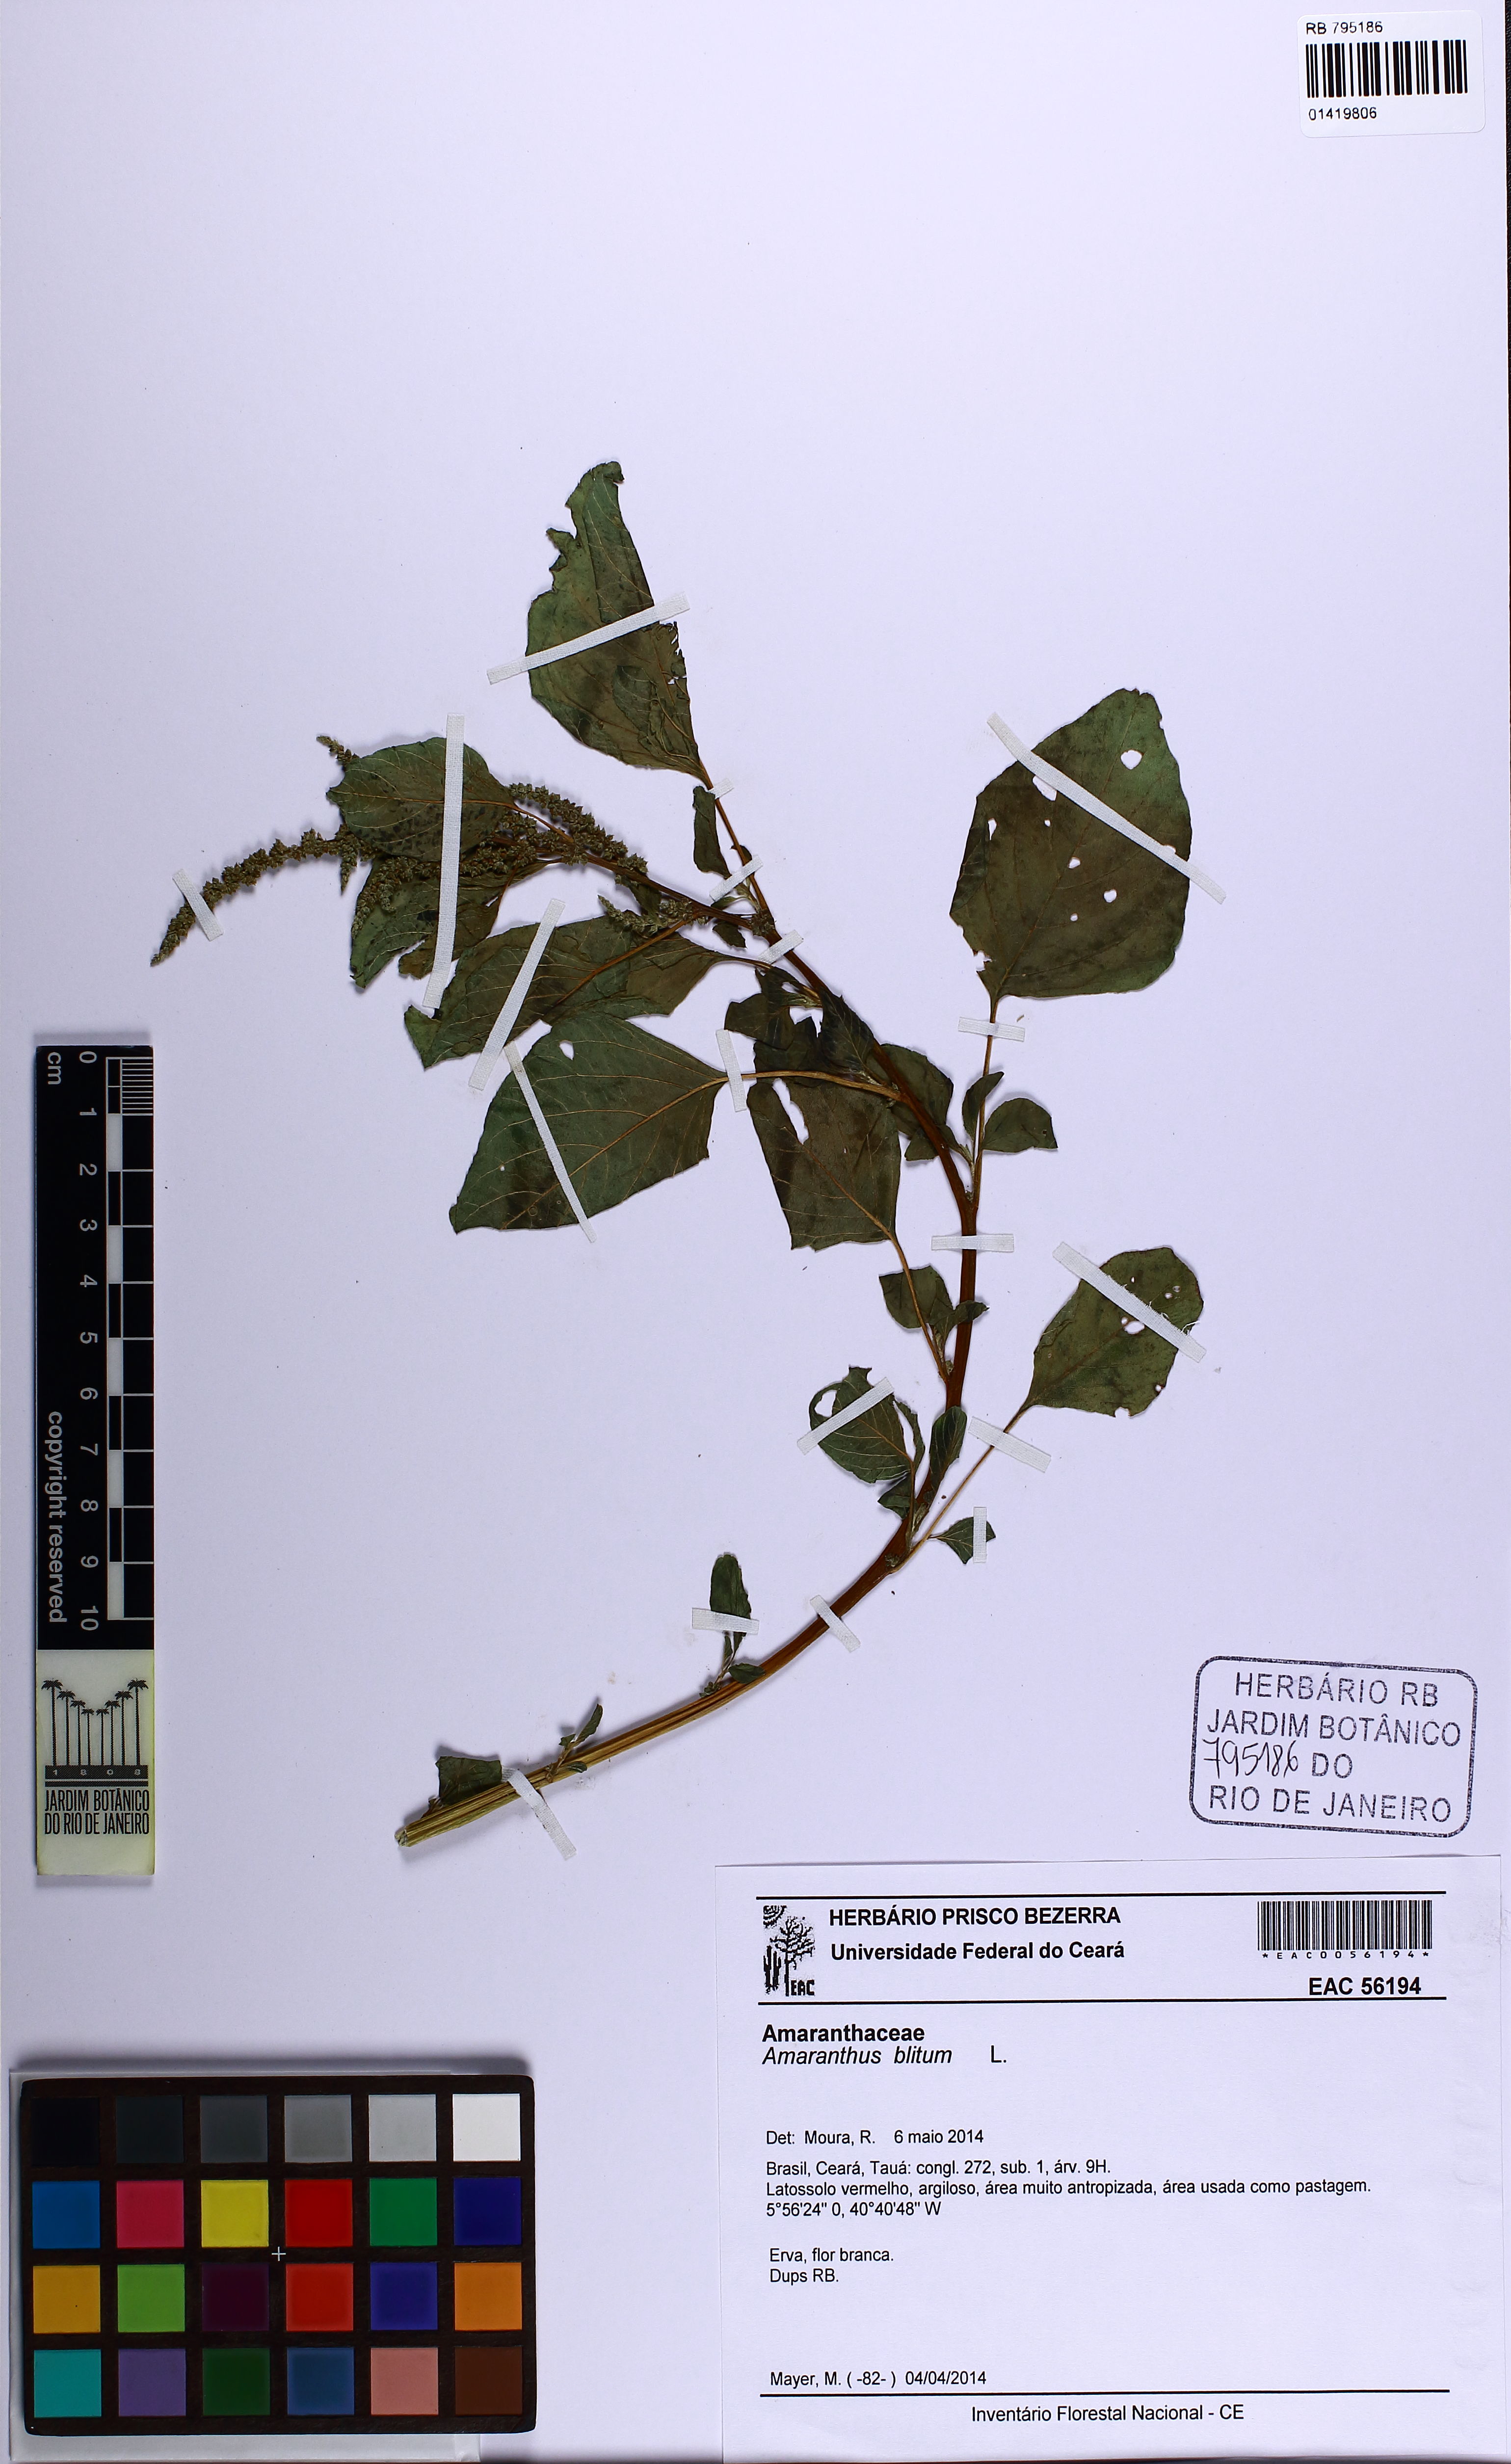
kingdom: Plantae
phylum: Tracheophyta
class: Magnoliopsida
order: Caryophyllales
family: Amaranthaceae
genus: Amaranthus
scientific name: Amaranthus blitum
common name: Purple amaranth
